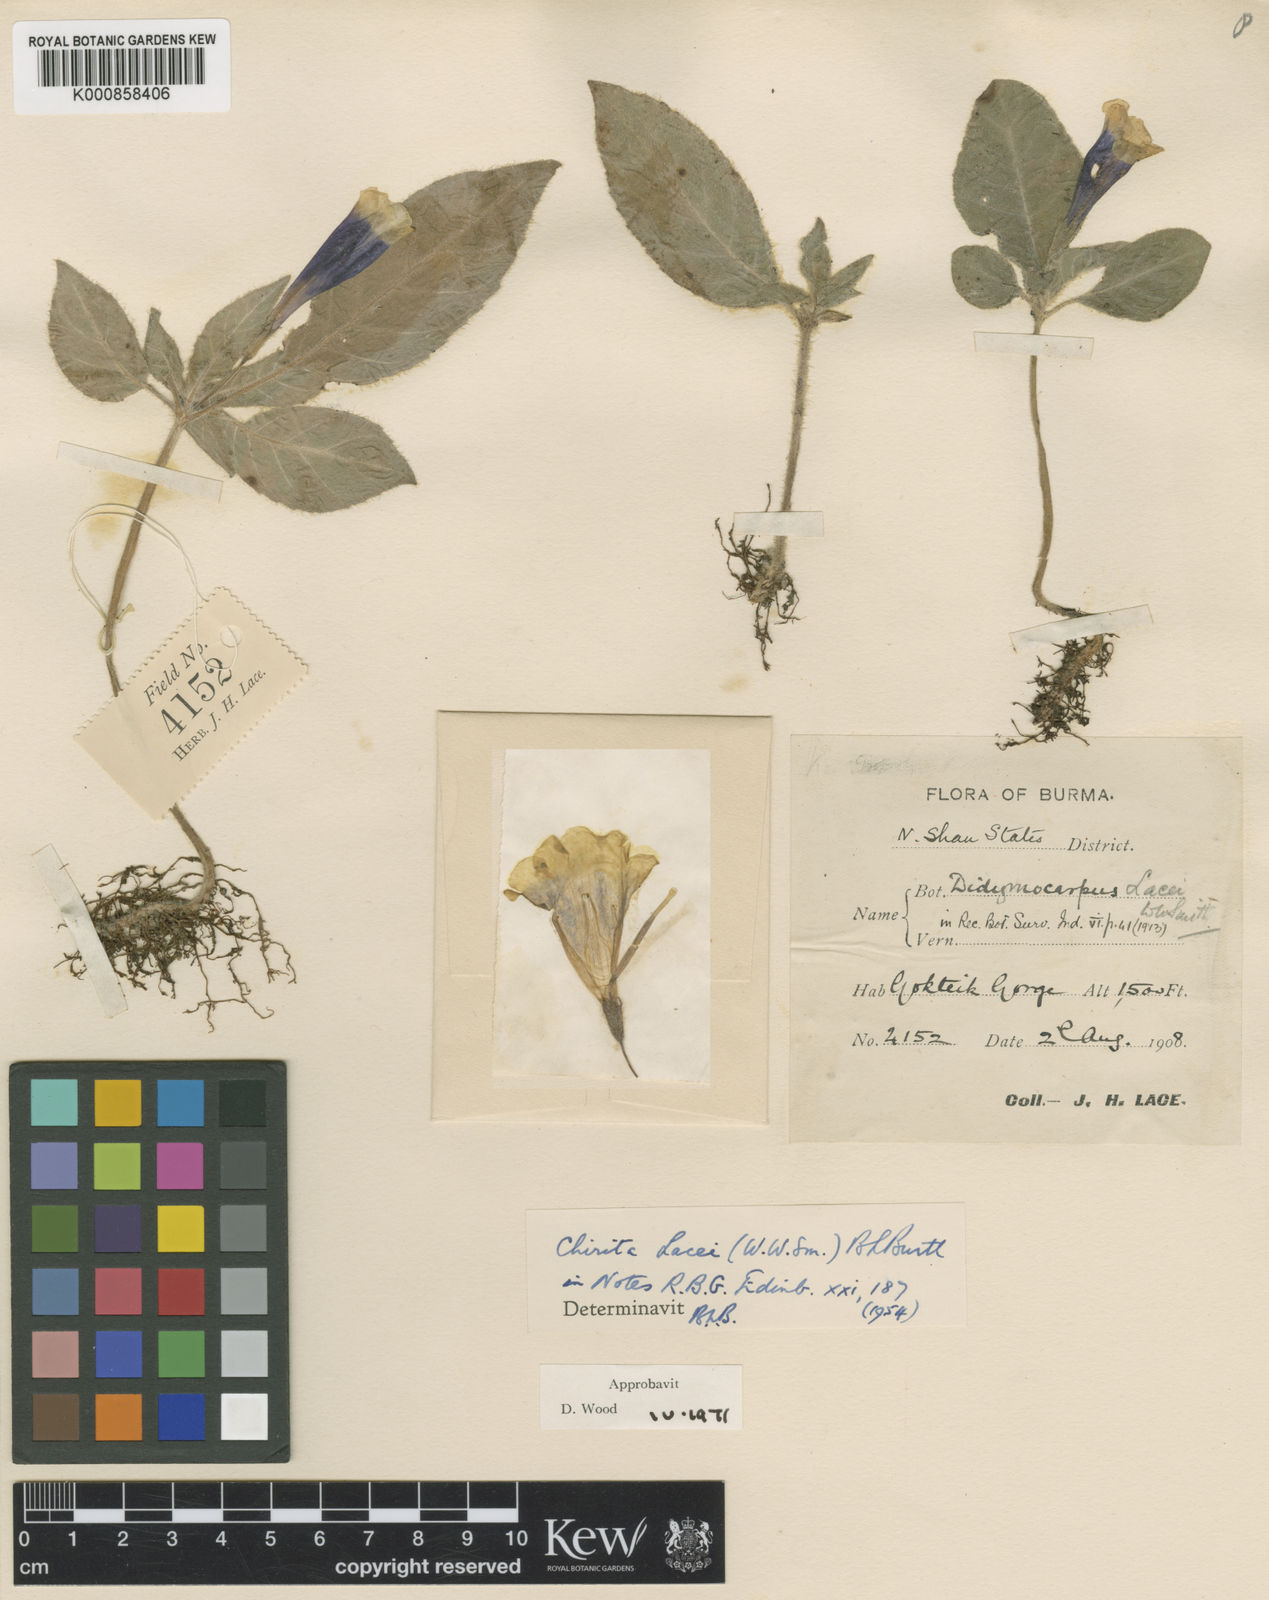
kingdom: Plantae
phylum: Tracheophyta
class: Magnoliopsida
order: Lamiales
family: Gesneriaceae
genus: Henckelia
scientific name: Henckelia lacei
